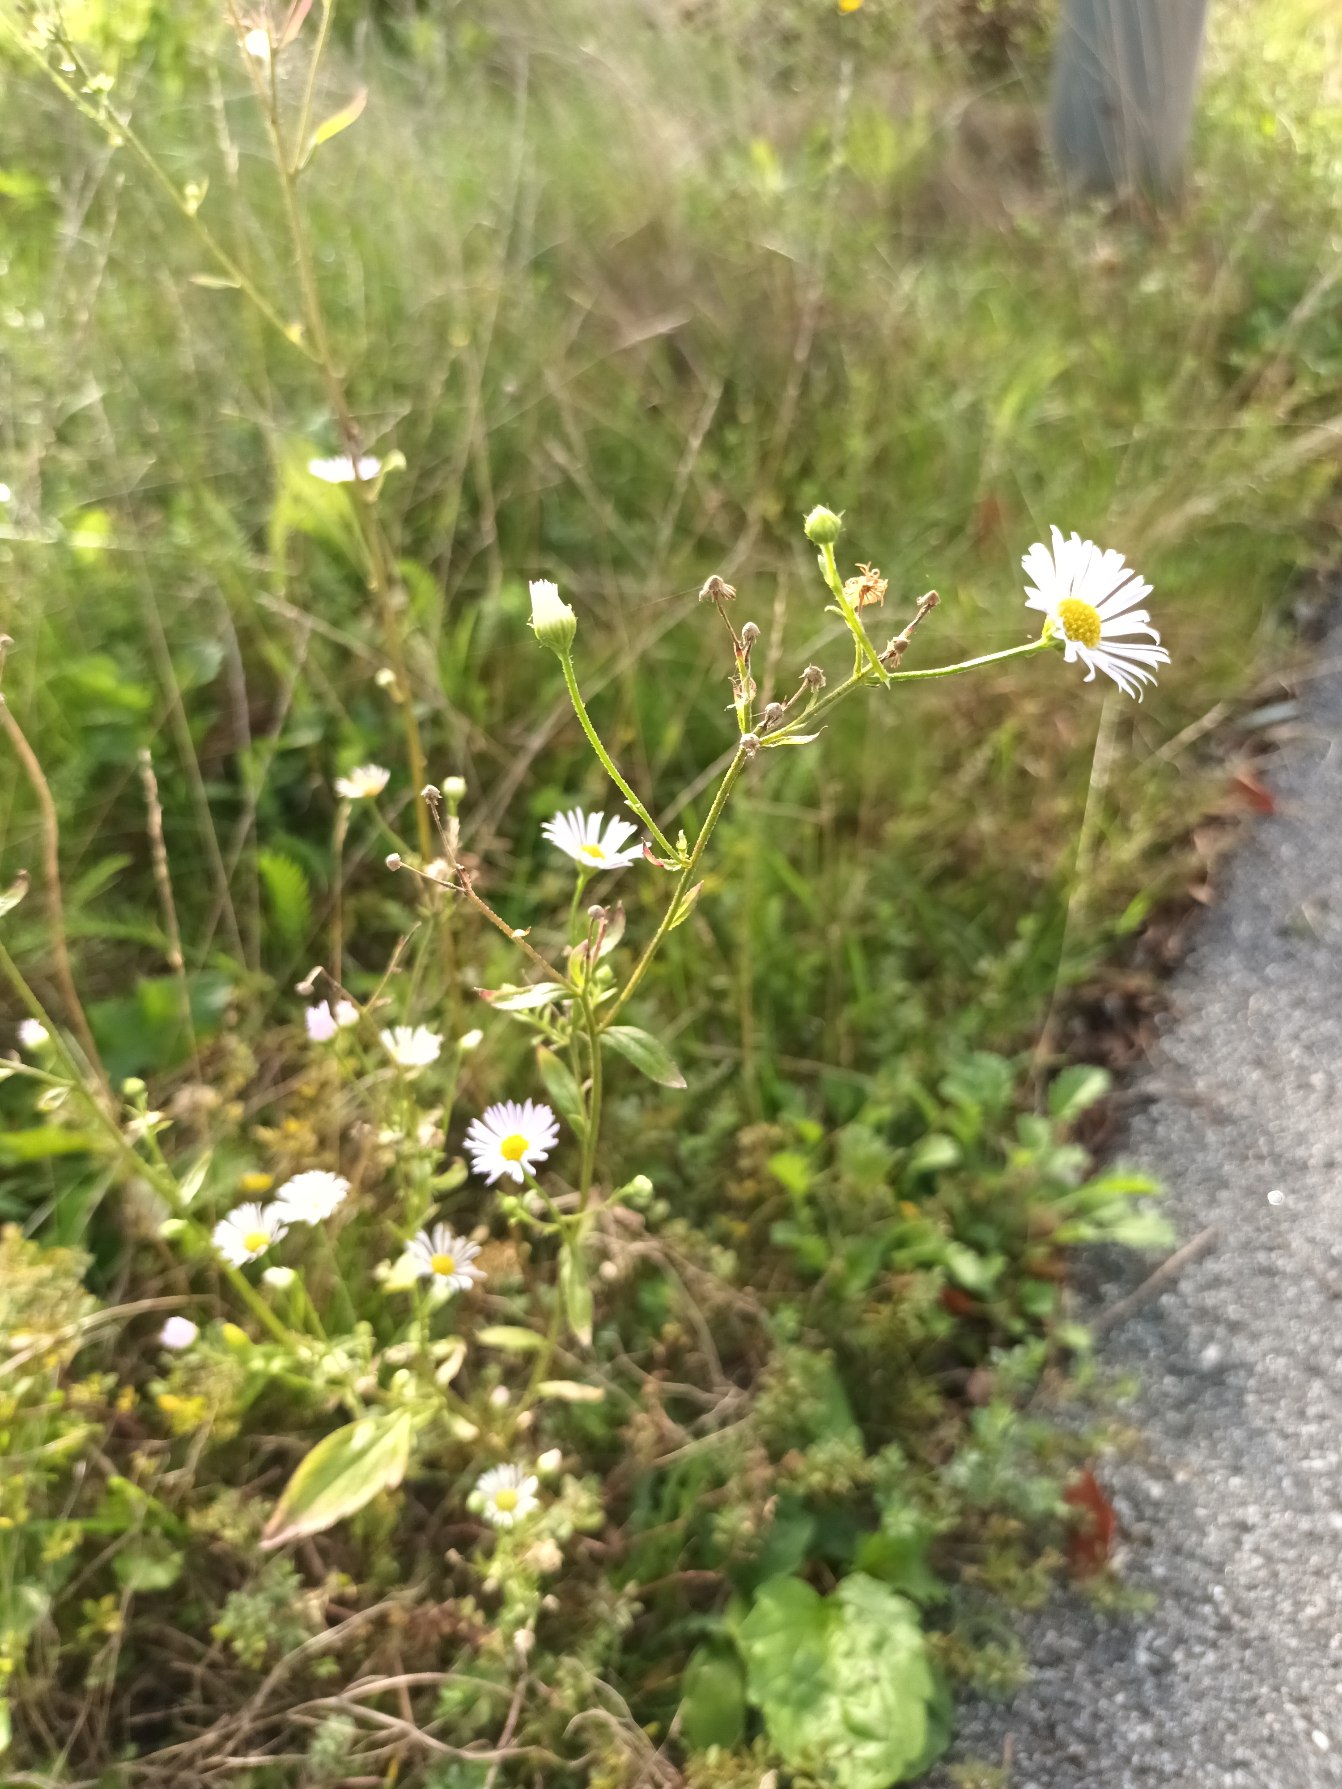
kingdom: Plantae
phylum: Tracheophyta
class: Magnoliopsida
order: Asterales
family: Asteraceae
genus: Erigeron
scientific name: Erigeron annuus
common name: Smalstråle
